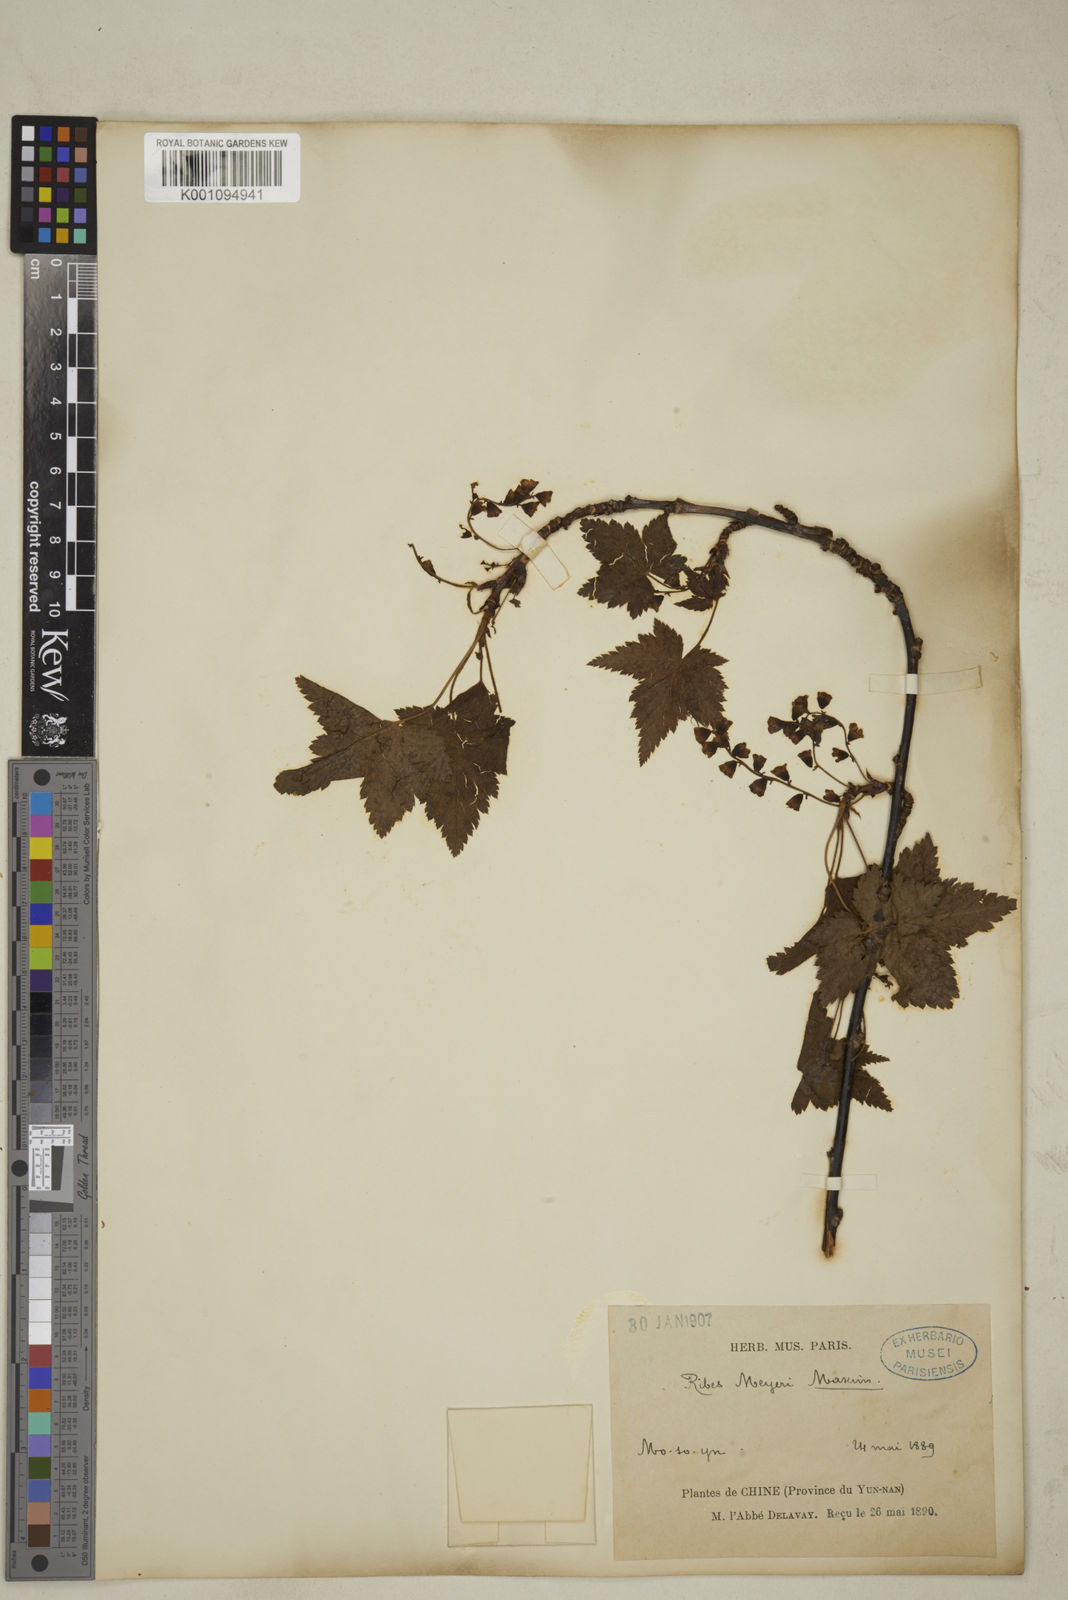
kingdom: Plantae
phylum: Tracheophyta
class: Magnoliopsida
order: Saxifragales
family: Grossulariaceae
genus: Ribes
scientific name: Ribes meyeri
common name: Meyer's currant
